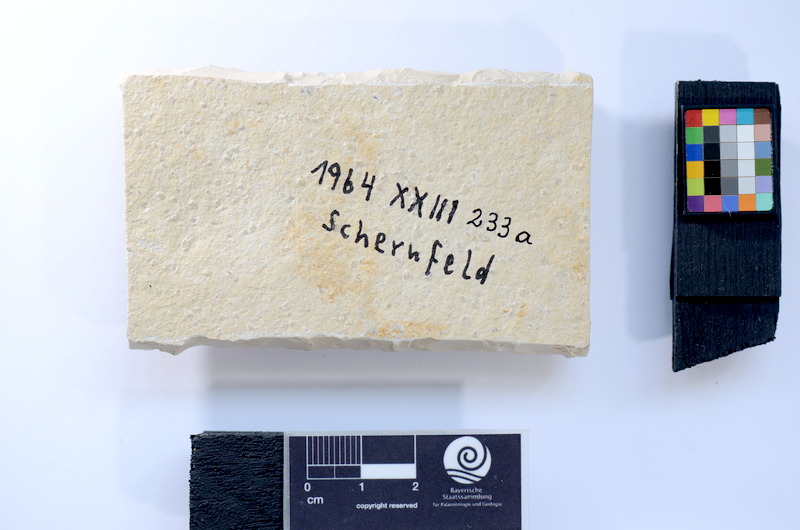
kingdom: Animalia
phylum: Chordata
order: Salmoniformes
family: Orthogonikleithridae
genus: Leptolepides
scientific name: Leptolepides sprattiformis
